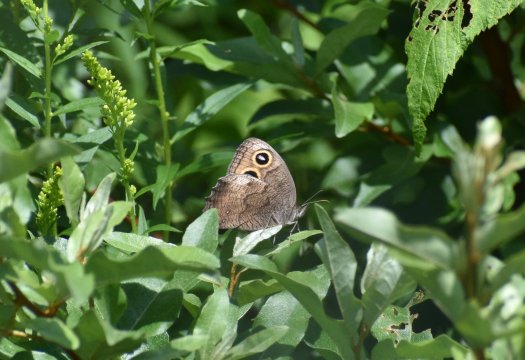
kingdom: Animalia
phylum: Arthropoda
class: Insecta
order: Lepidoptera
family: Nymphalidae
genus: Cercyonis
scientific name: Cercyonis pegala
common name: Common Wood-Nymph
